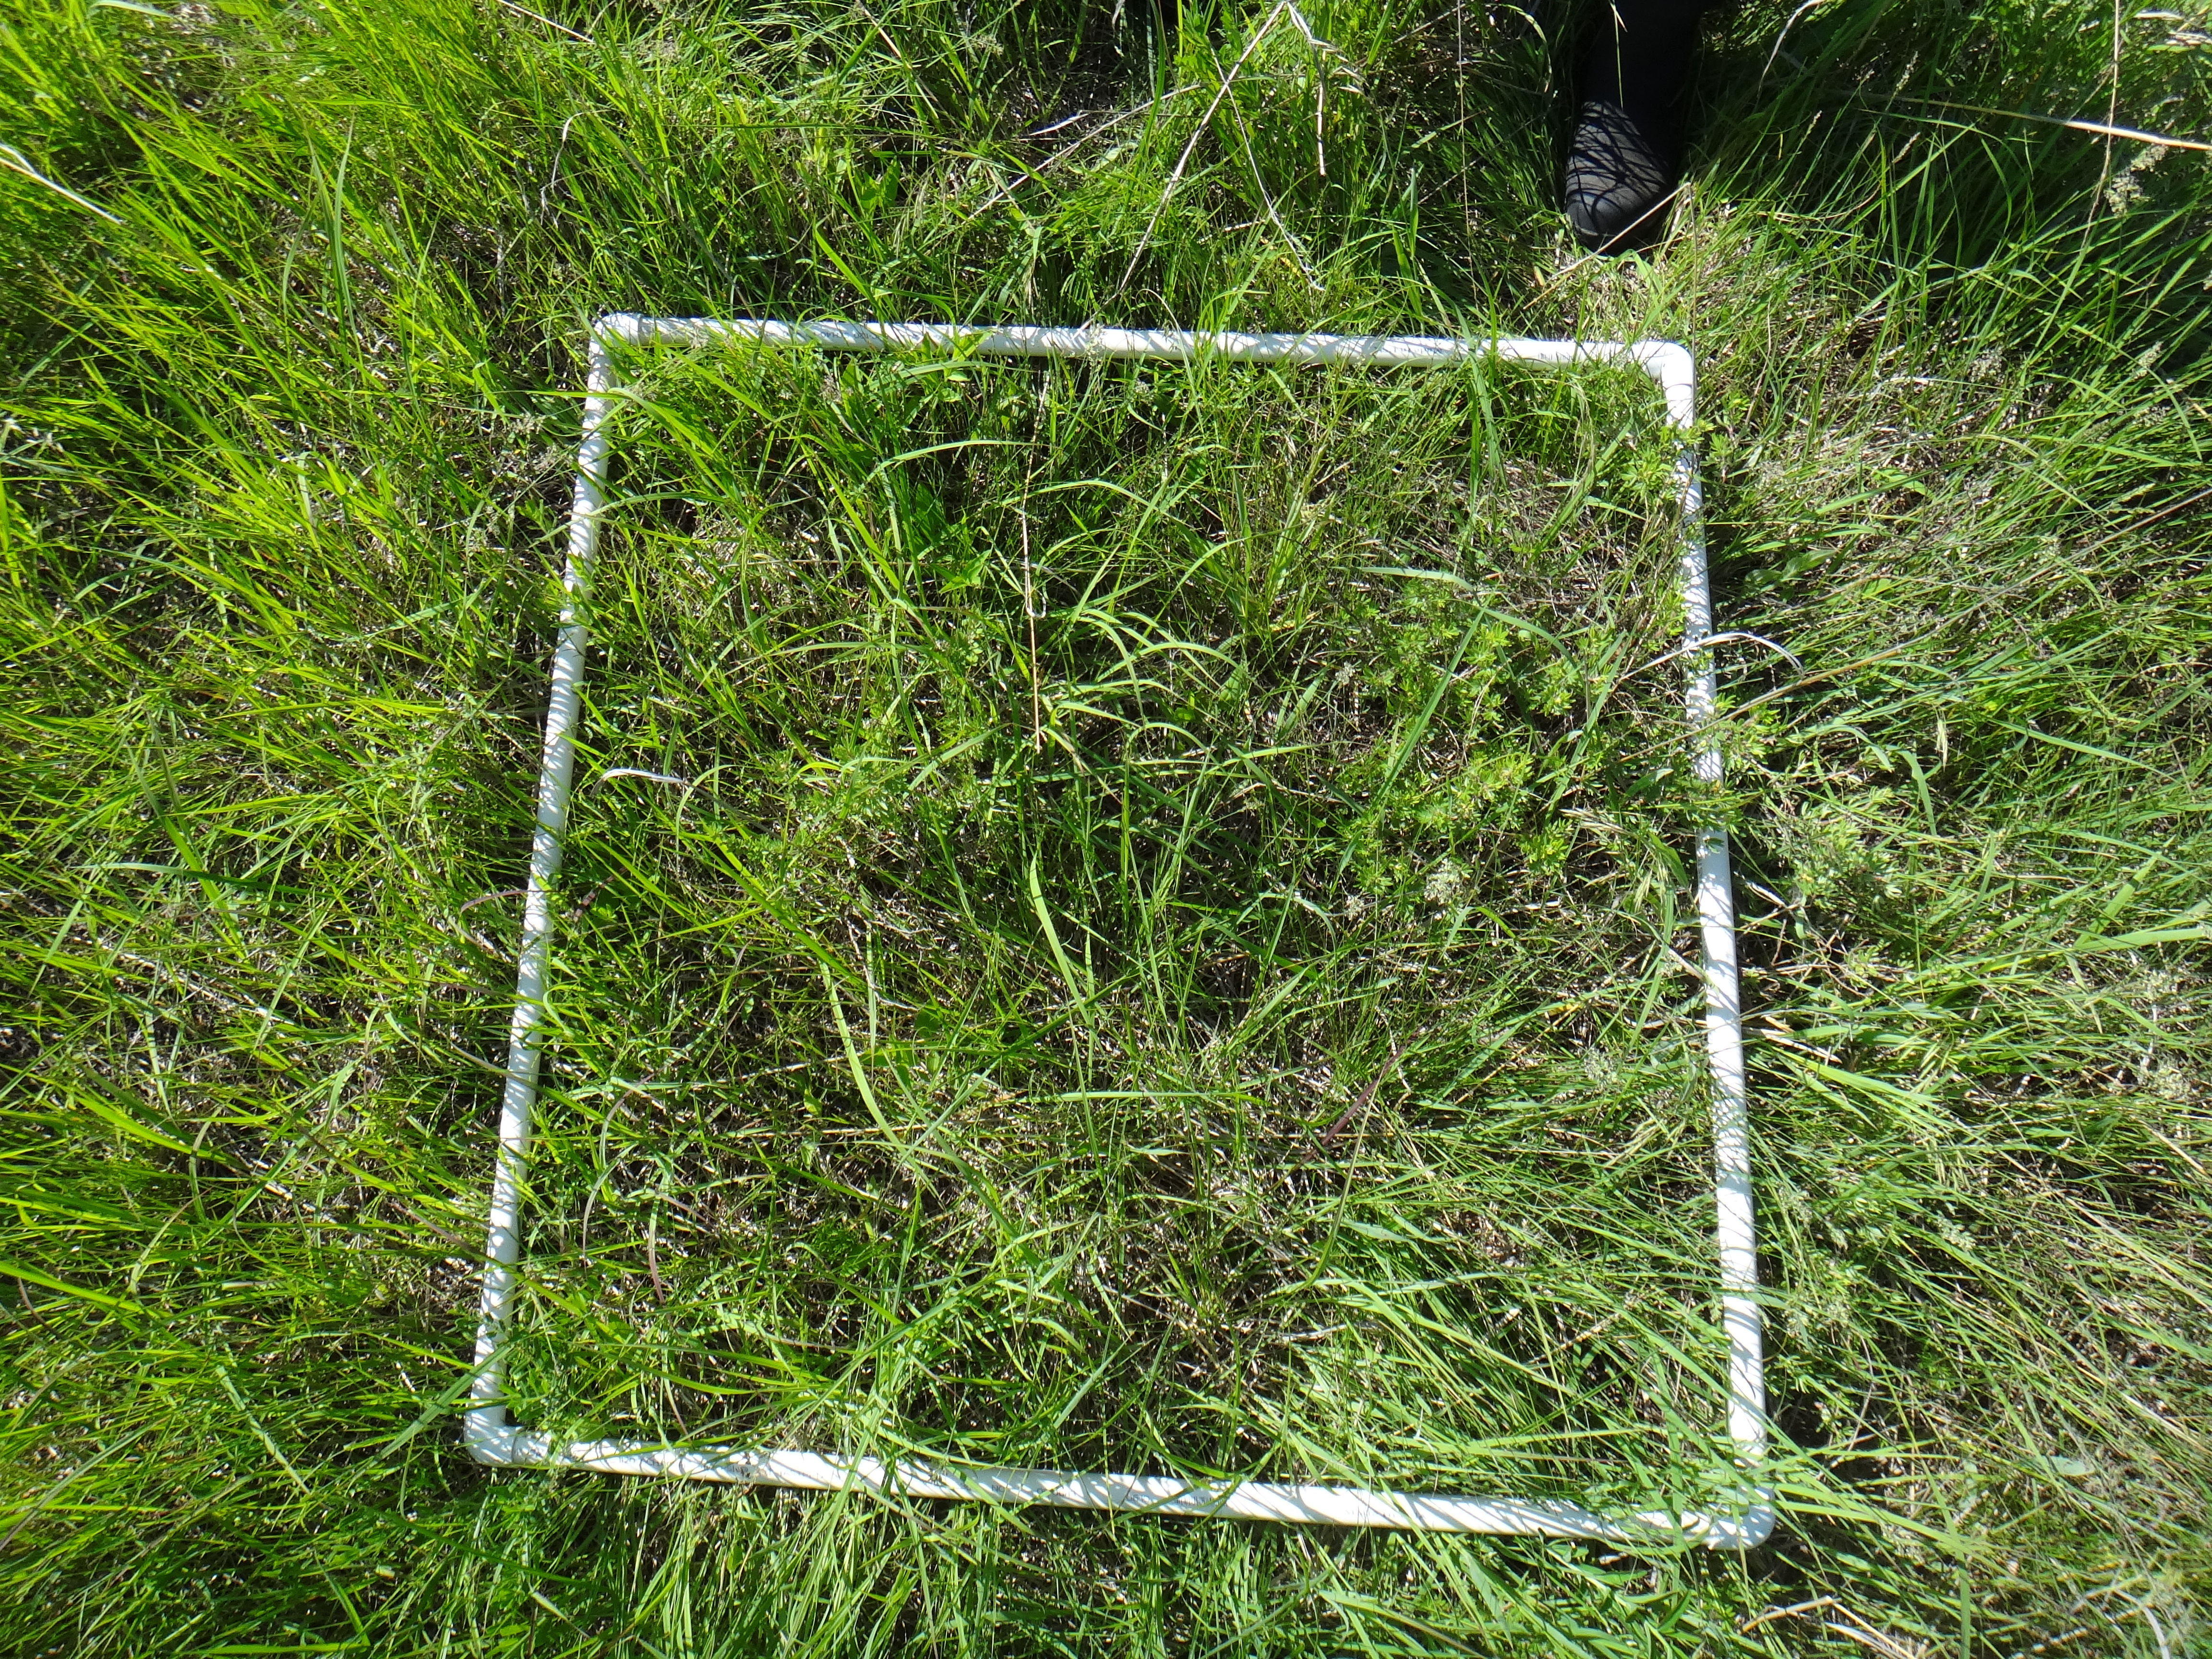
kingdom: Plantae
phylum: Tracheophyta
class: Liliopsida
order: Poales
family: Cyperaceae
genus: Carex
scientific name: Carex tetanica
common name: Rigid sedge
